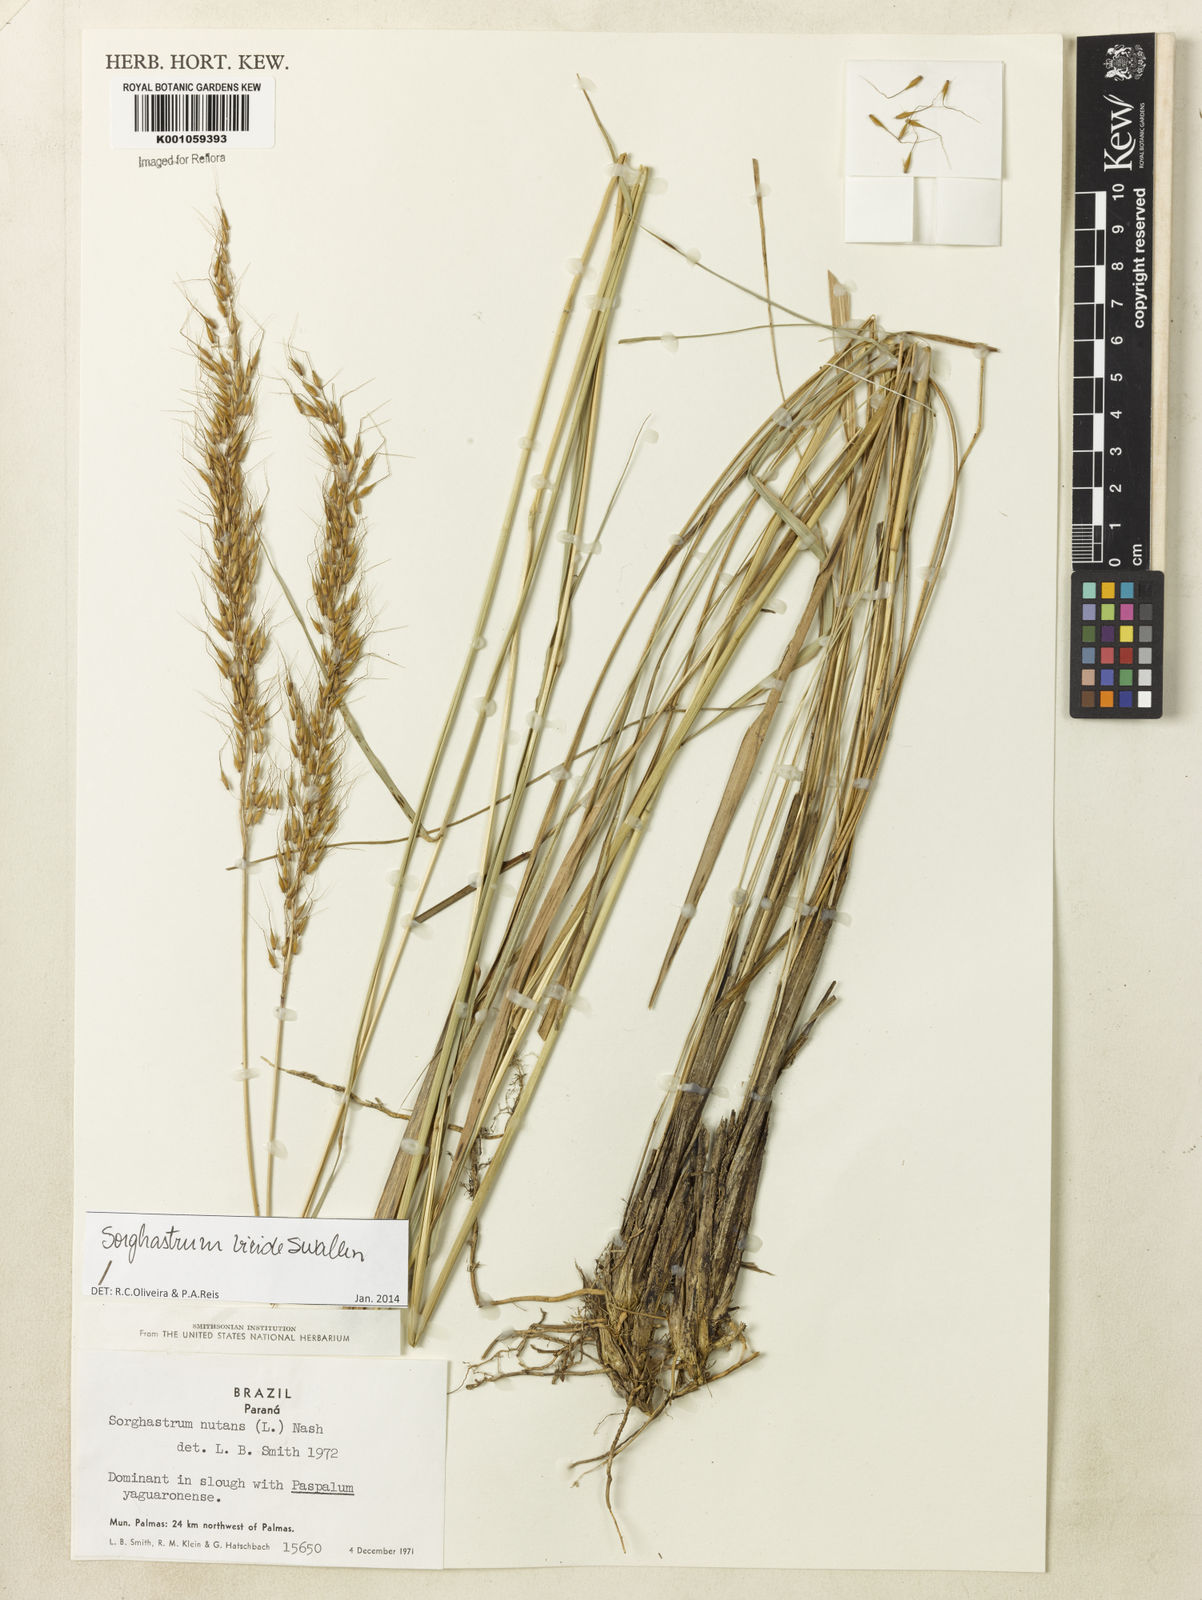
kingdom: Plantae
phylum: Tracheophyta
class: Liliopsida
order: Poales
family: Poaceae
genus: Sorghastrum
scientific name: Sorghastrum viride
